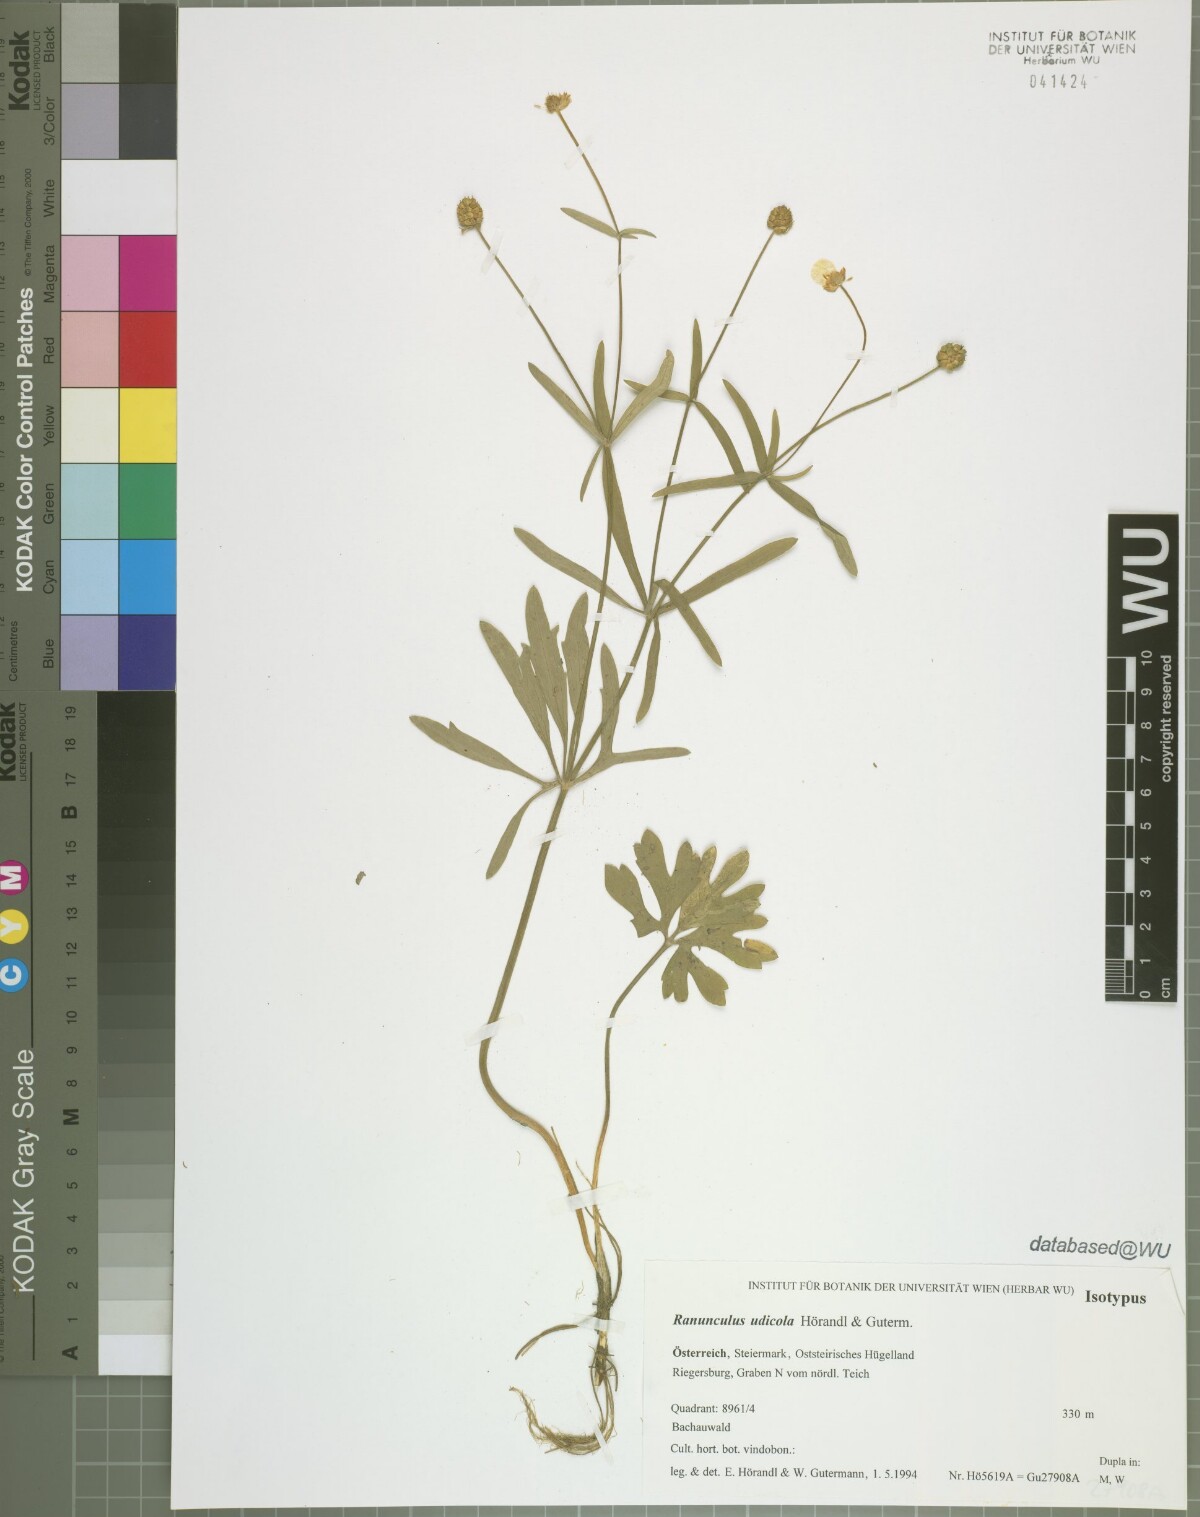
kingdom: Plantae
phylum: Tracheophyta
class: Magnoliopsida
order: Ranunculales
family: Ranunculaceae
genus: Ranunculus
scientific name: Ranunculus udicola
